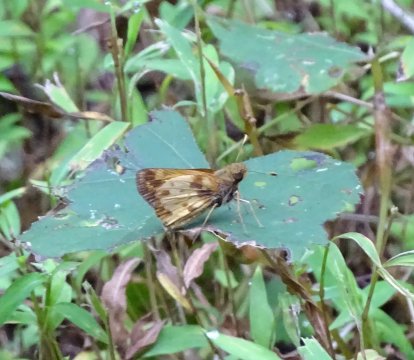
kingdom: Animalia
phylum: Arthropoda
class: Insecta
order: Lepidoptera
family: Hesperiidae
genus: Lon
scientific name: Lon zabulon
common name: Zabulon Skipper
